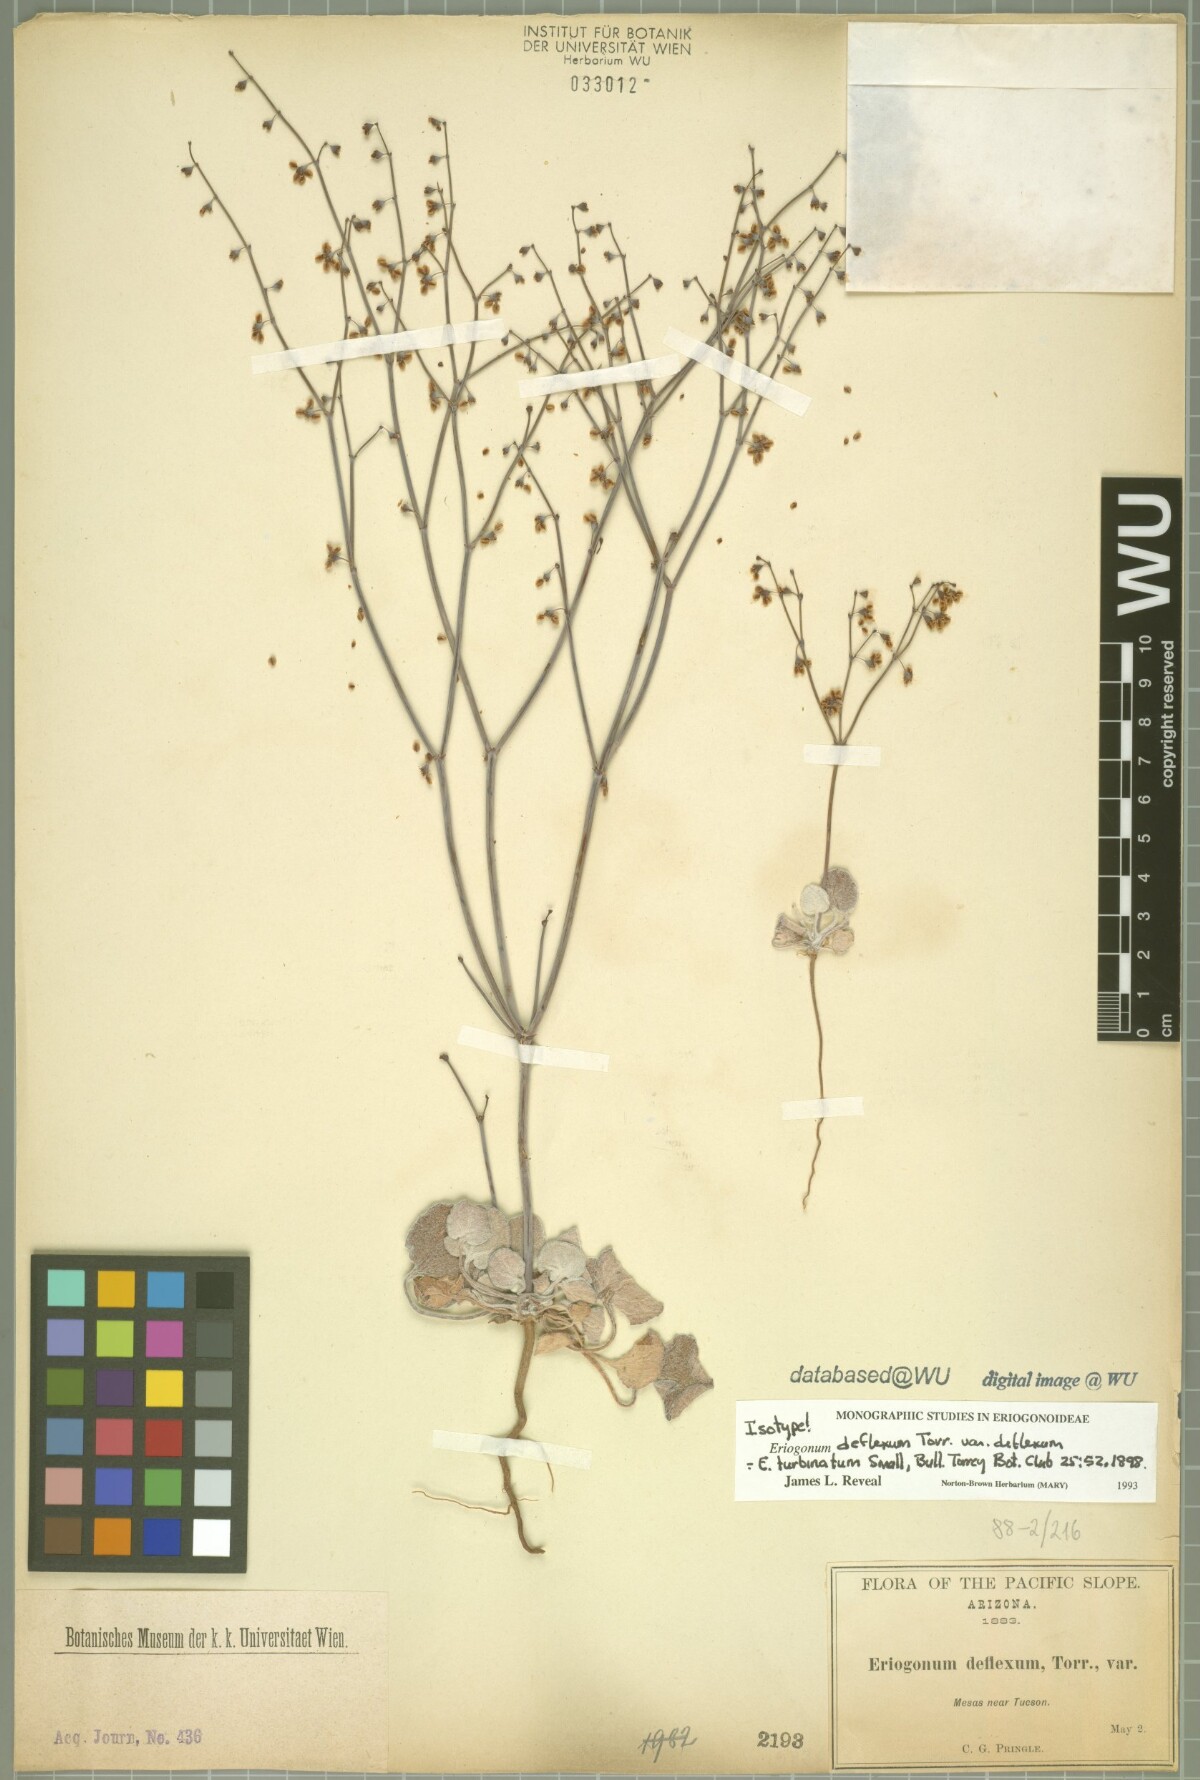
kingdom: Plantae
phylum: Tracheophyta
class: Magnoliopsida
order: Caryophyllales
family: Polygonaceae
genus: Eriogonum
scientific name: Eriogonum deflexum
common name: Skeleton-weed
